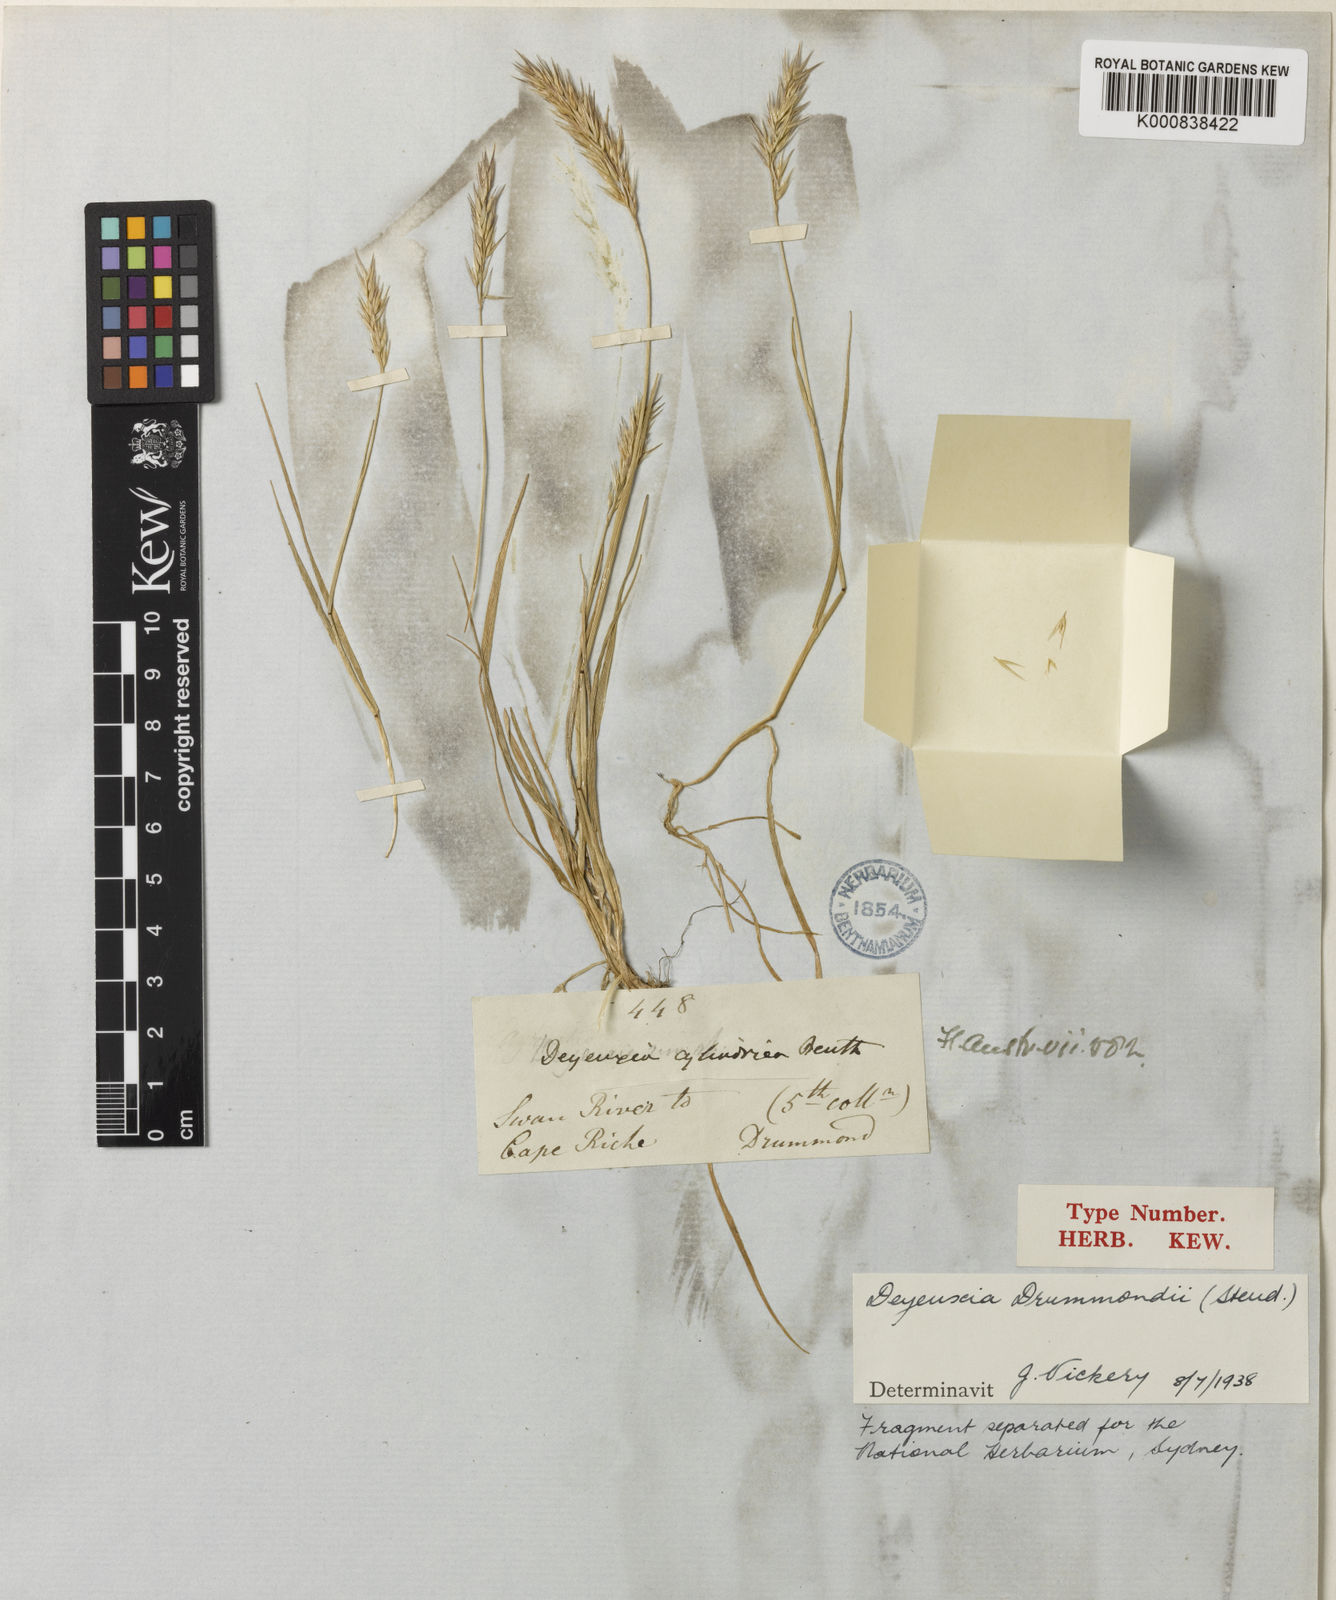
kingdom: Plantae
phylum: Tracheophyta
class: Liliopsida
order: Poales
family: Poaceae
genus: Calamagrostis
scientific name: Calamagrostis drummondii
